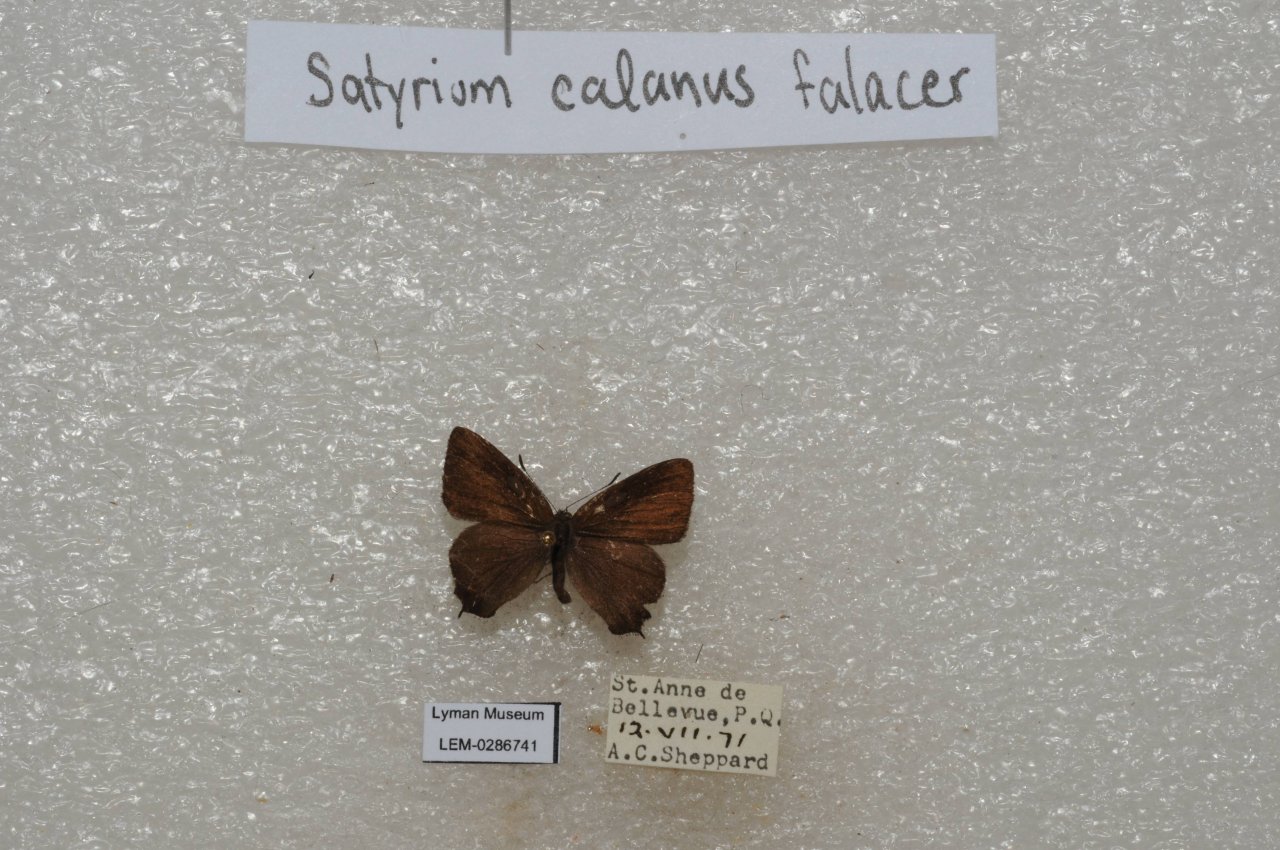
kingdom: Animalia
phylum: Arthropoda
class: Insecta
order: Lepidoptera
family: Lycaenidae
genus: Satyrium
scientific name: Satyrium calanus
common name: Banded Hairstreak
